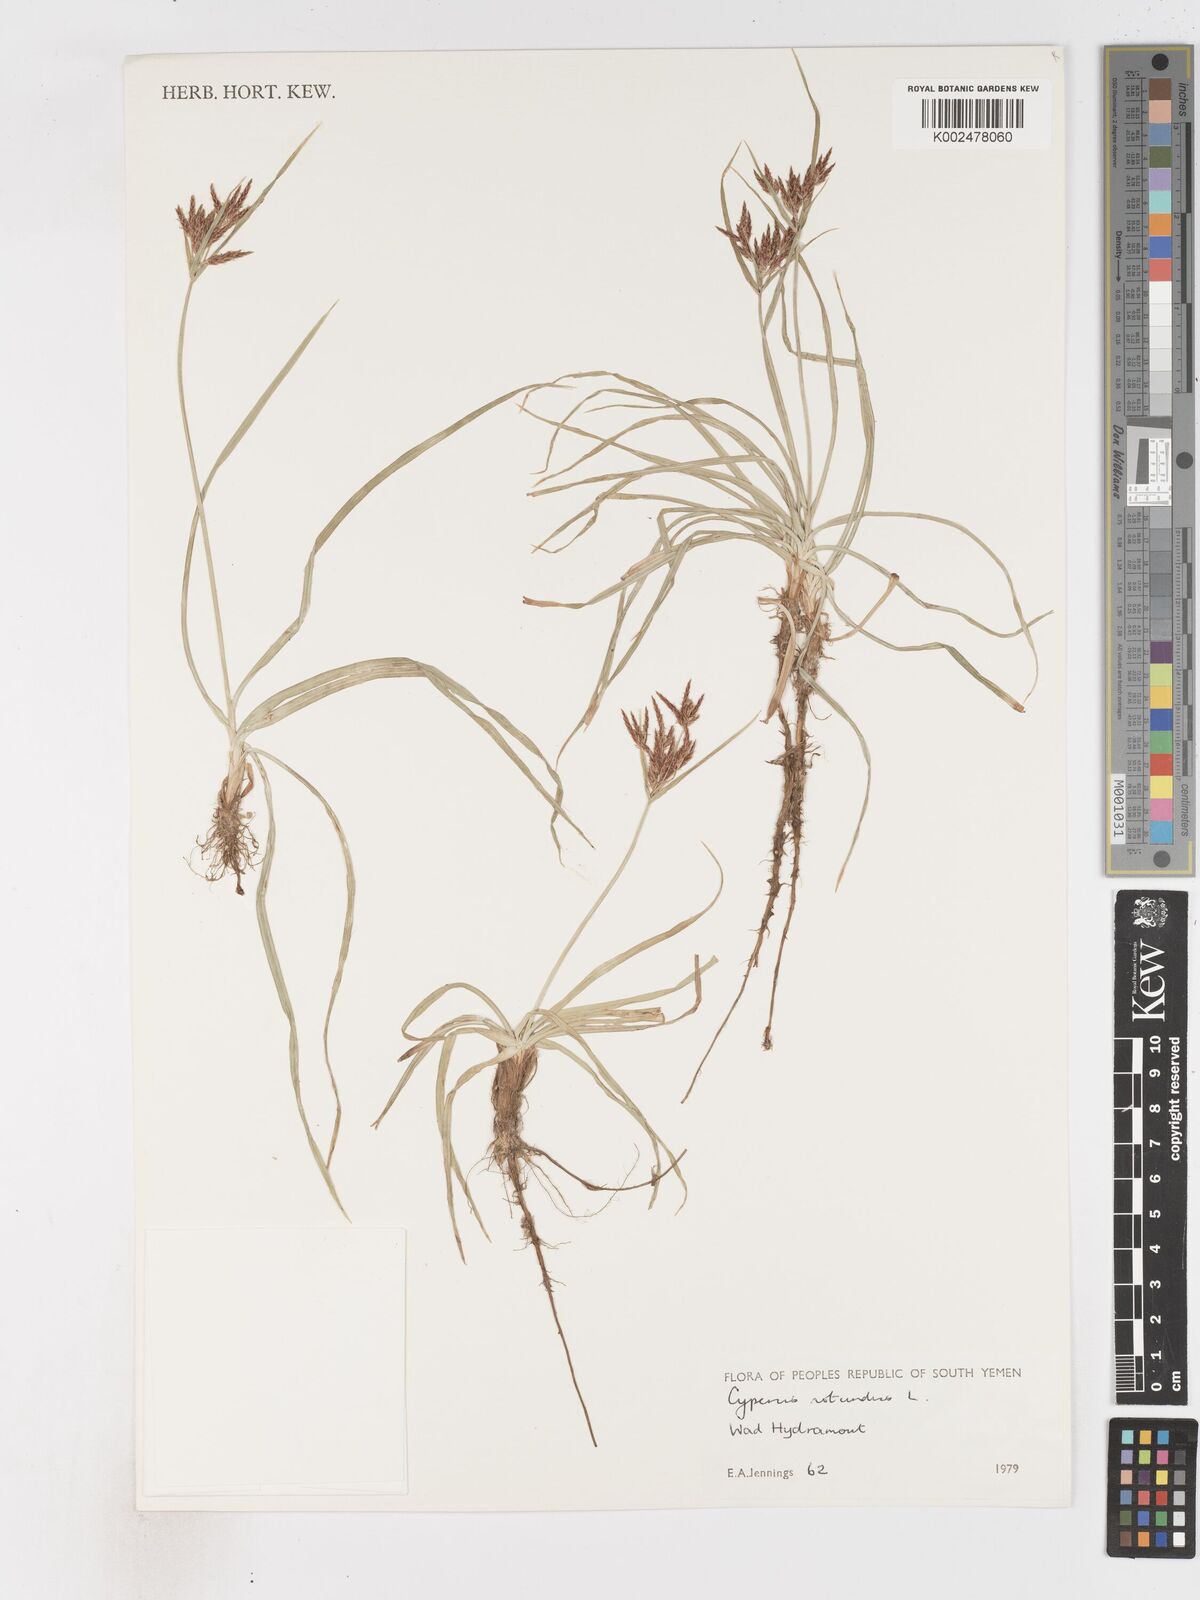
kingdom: Plantae
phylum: Tracheophyta
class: Liliopsida
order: Poales
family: Cyperaceae
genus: Cyperus
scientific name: Cyperus rotundus
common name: Nutgrass
